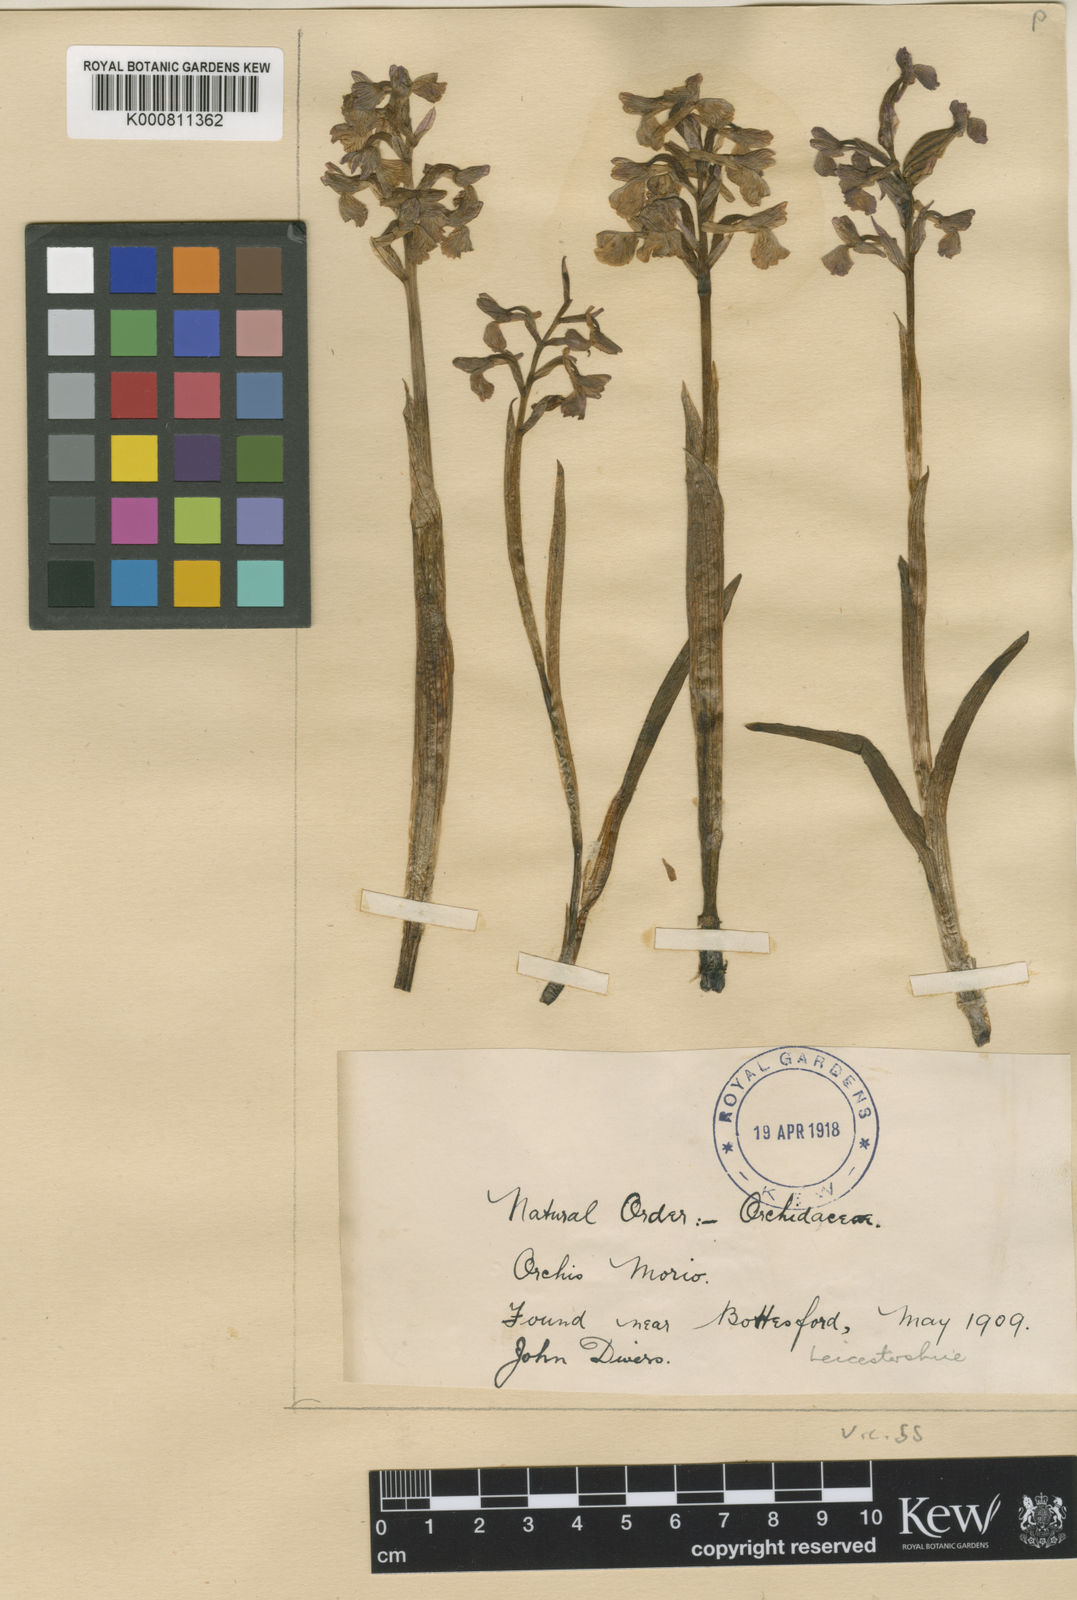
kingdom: Plantae
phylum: Tracheophyta
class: Liliopsida
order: Asparagales
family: Orchidaceae
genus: Anacamptis
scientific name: Anacamptis morio
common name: Green-winged orchid
